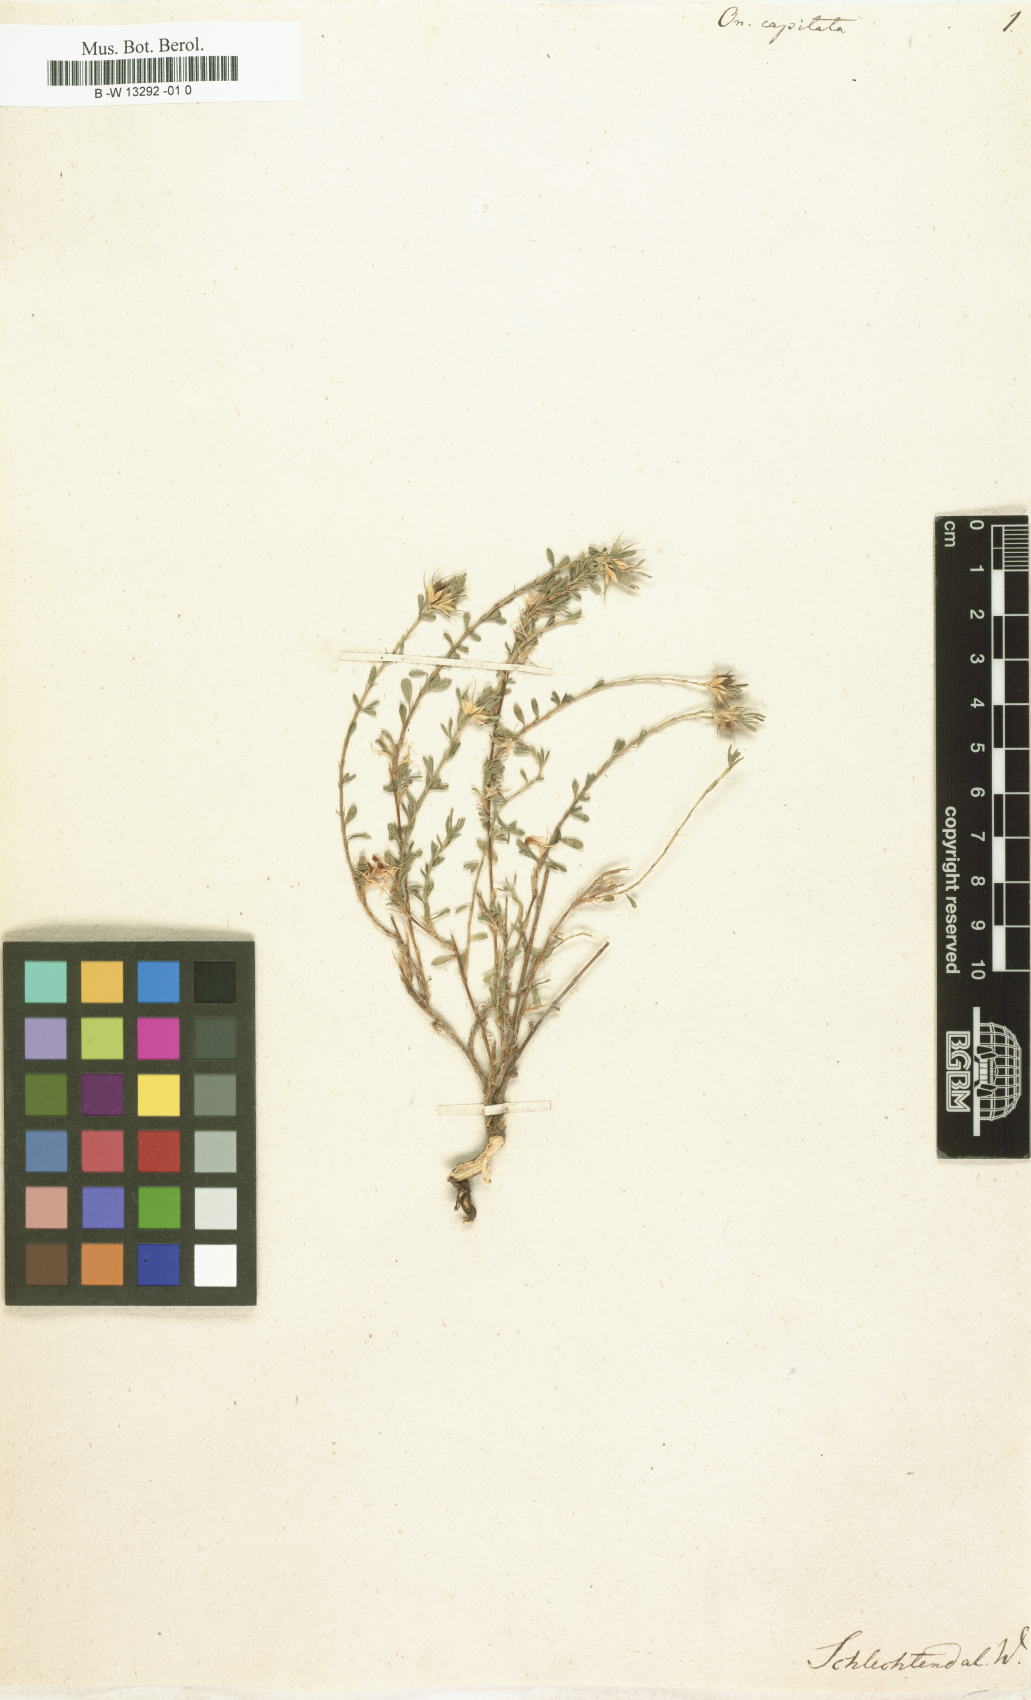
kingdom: Plantae
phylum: Tracheophyta
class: Magnoliopsida
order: Fabales
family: Fabaceae
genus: Ononis
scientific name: Ononis pusilla
